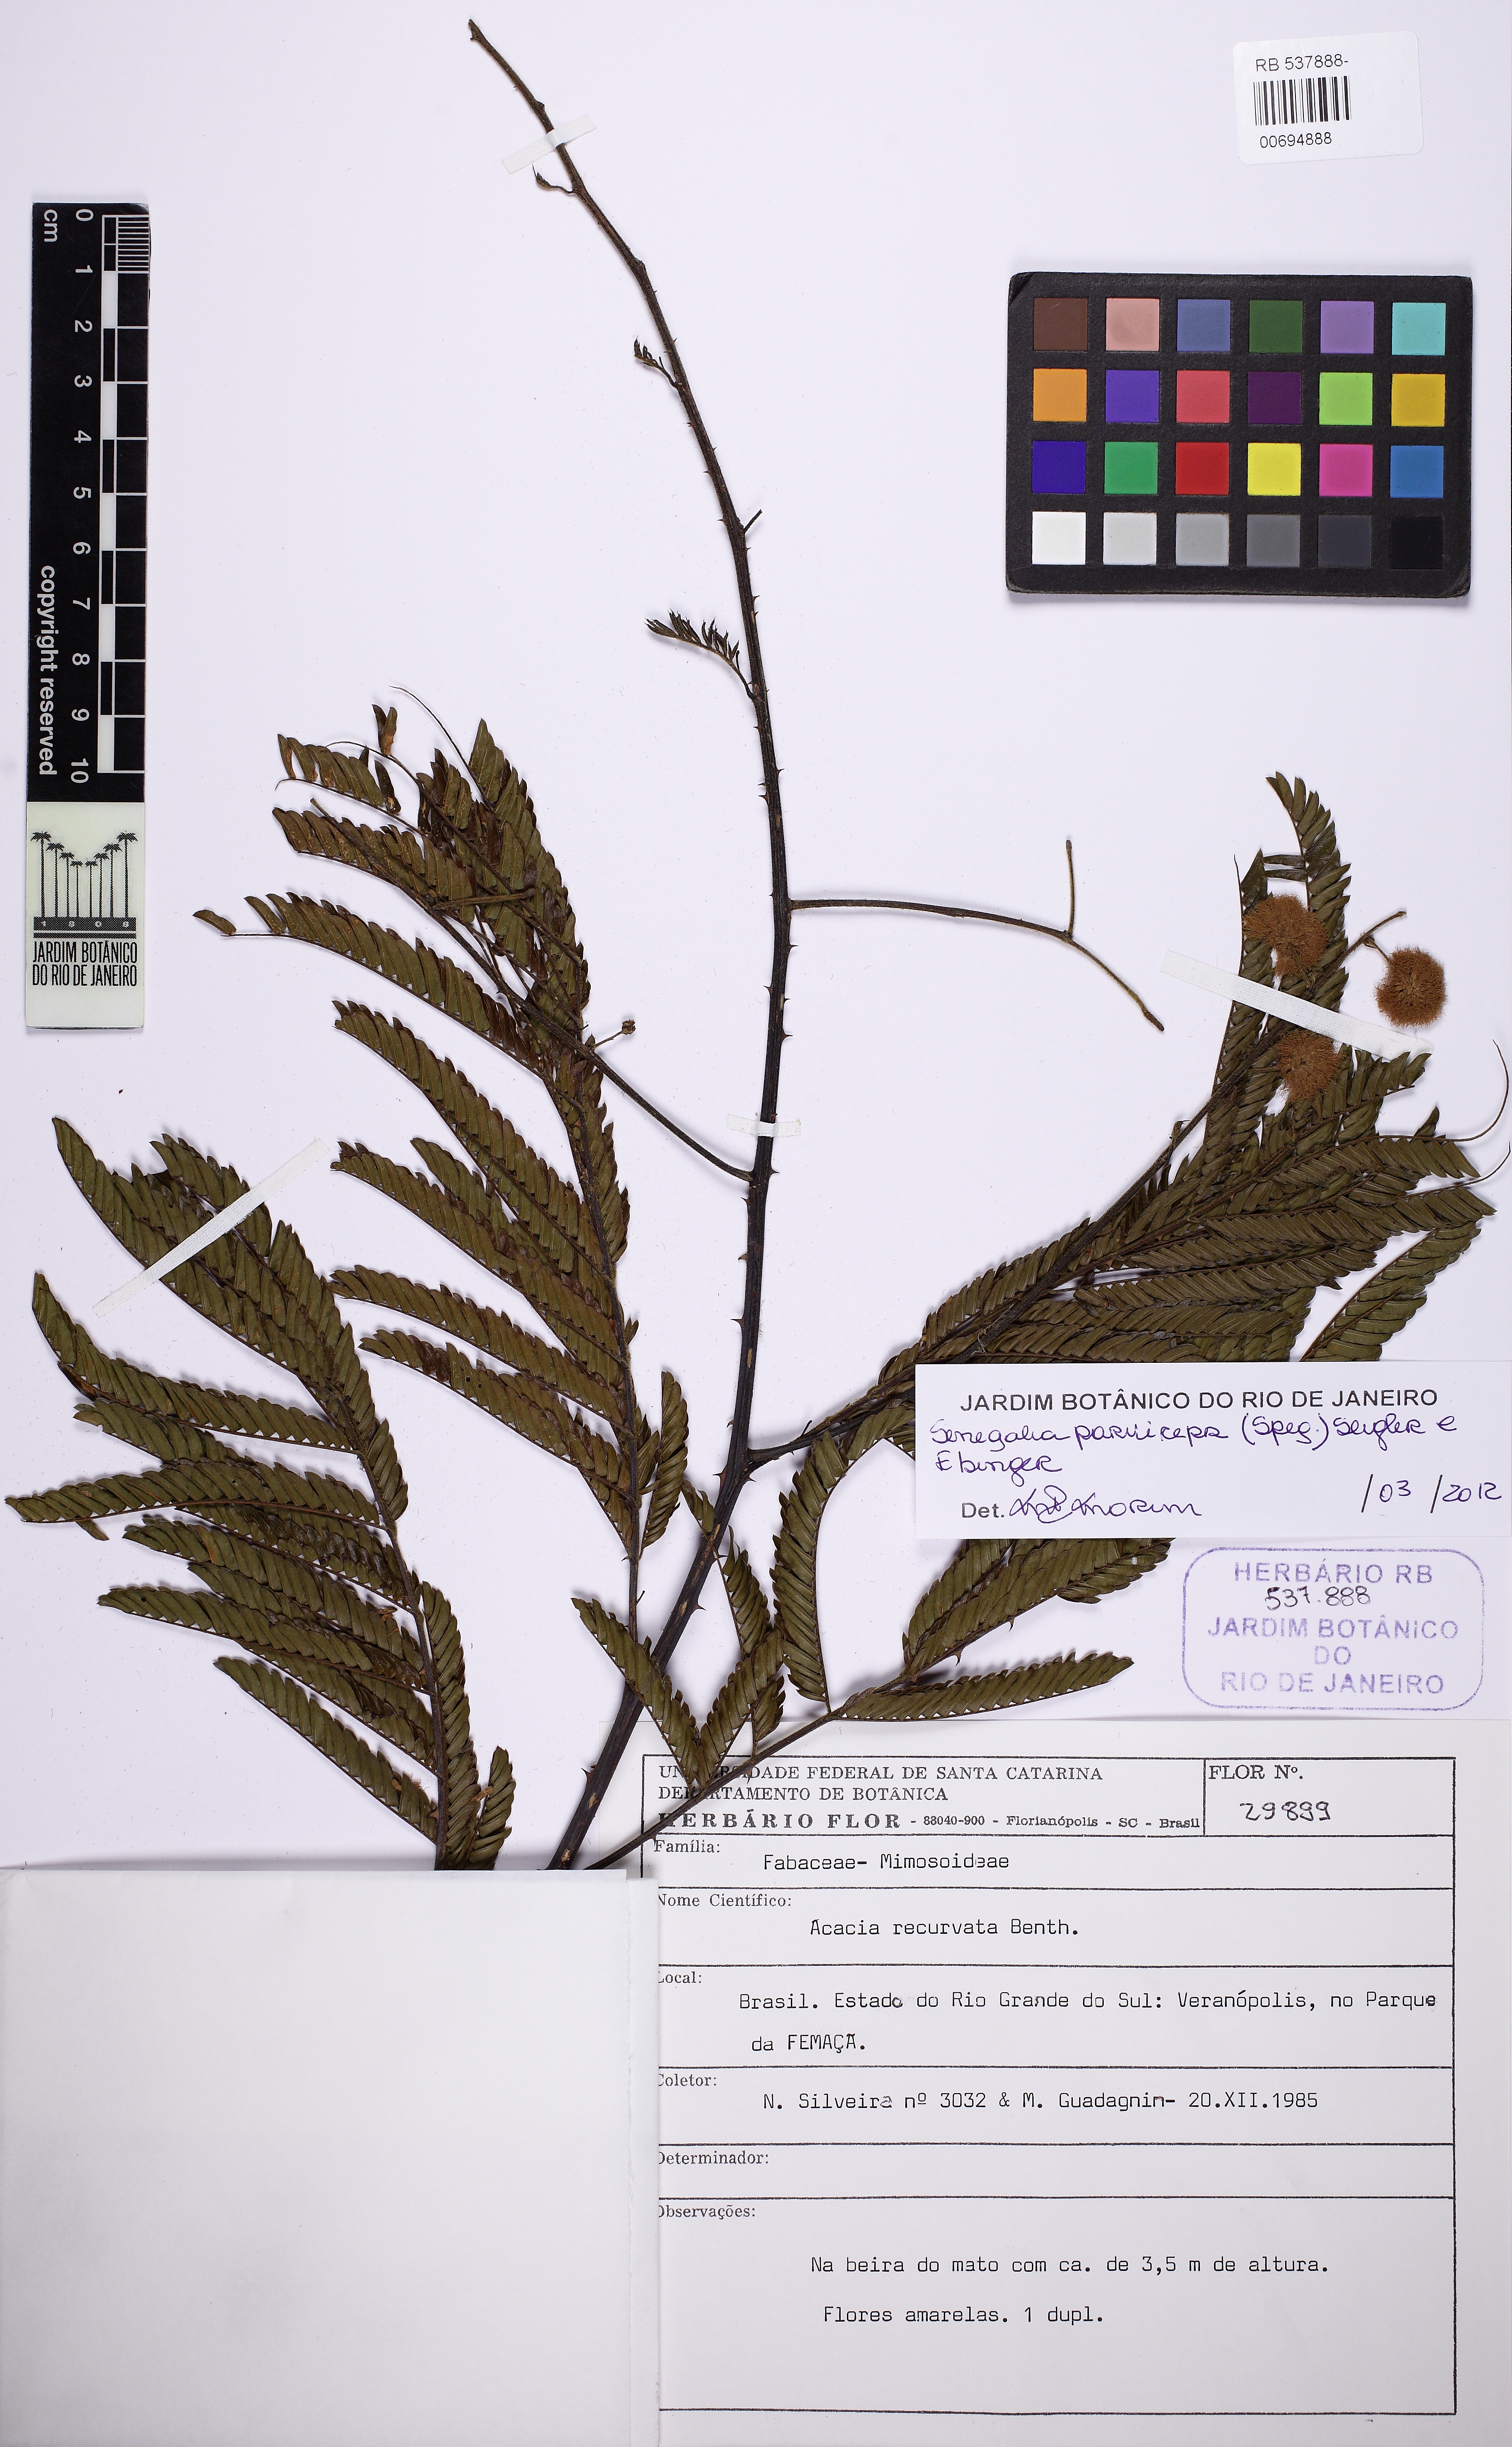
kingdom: Plantae
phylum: Tracheophyta
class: Magnoliopsida
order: Fabales
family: Fabaceae
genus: Senegalia
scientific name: Senegalia nitidifolia
